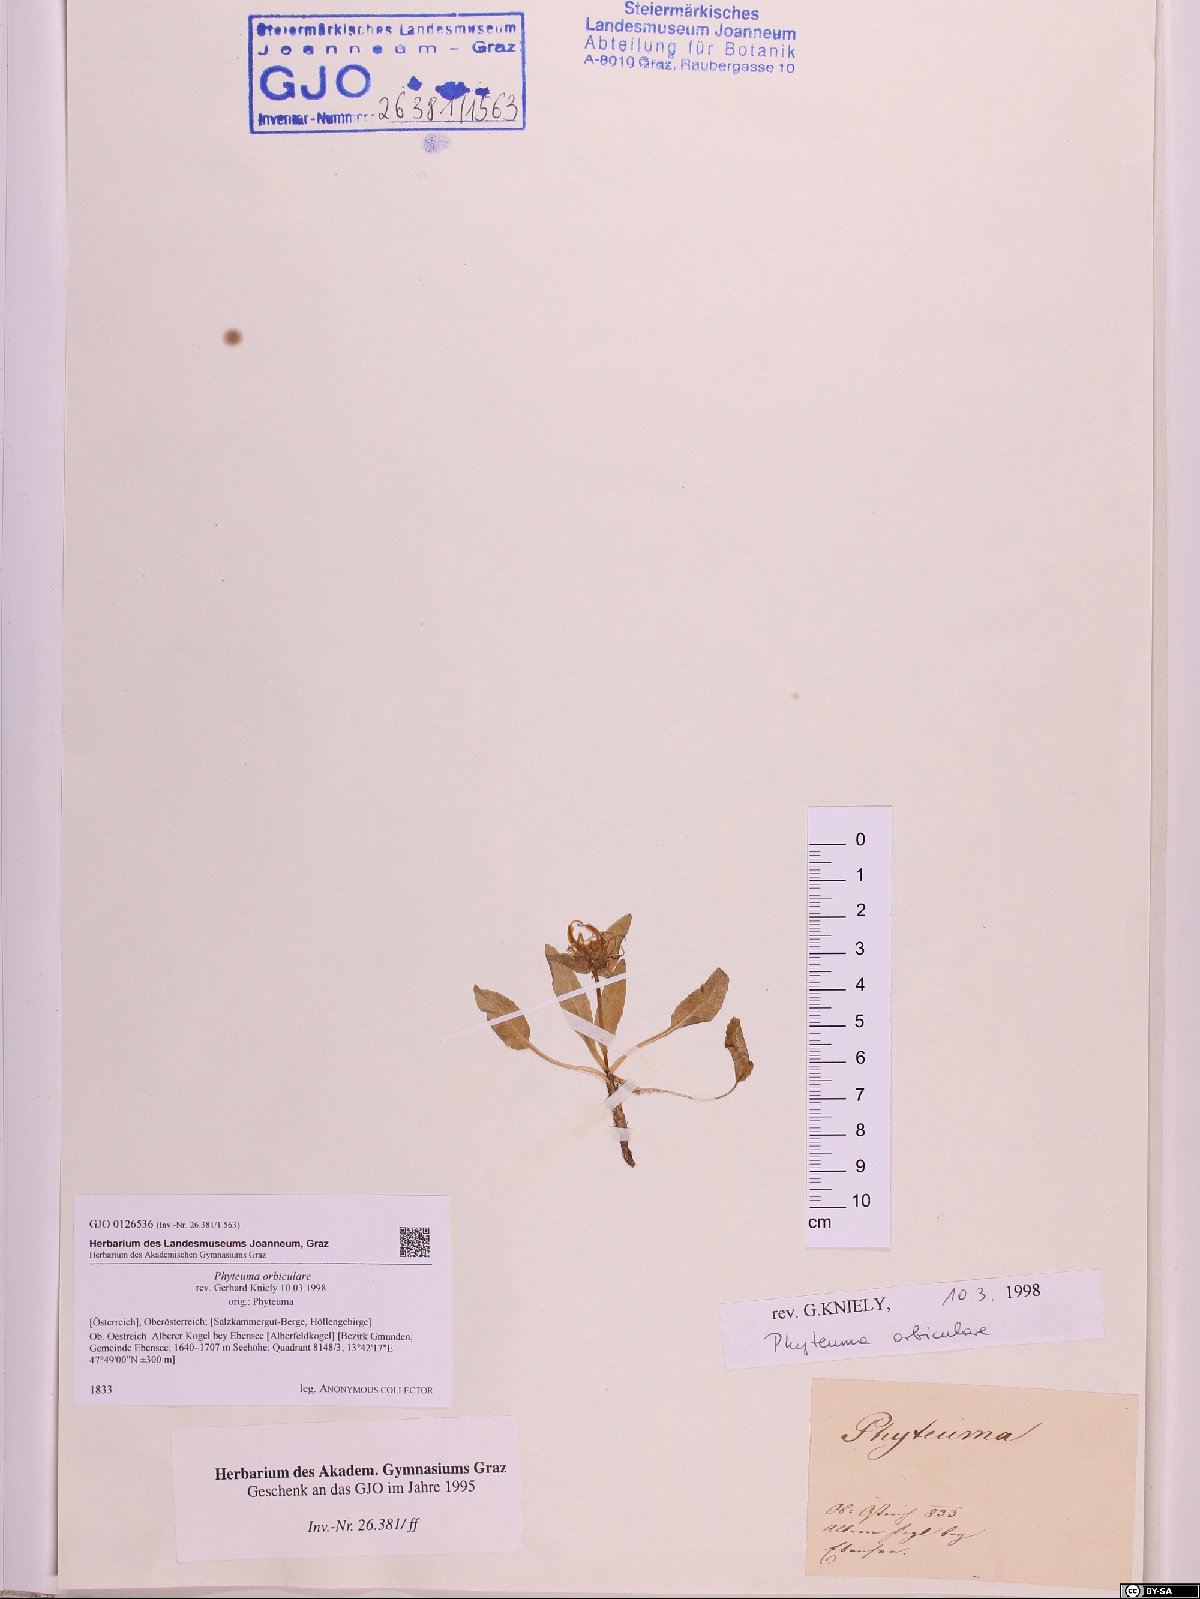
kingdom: Plantae
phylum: Tracheophyta
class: Magnoliopsida
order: Asterales
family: Campanulaceae
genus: Phyteuma
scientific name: Phyteuma orbiculare
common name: Round-headed rampion
